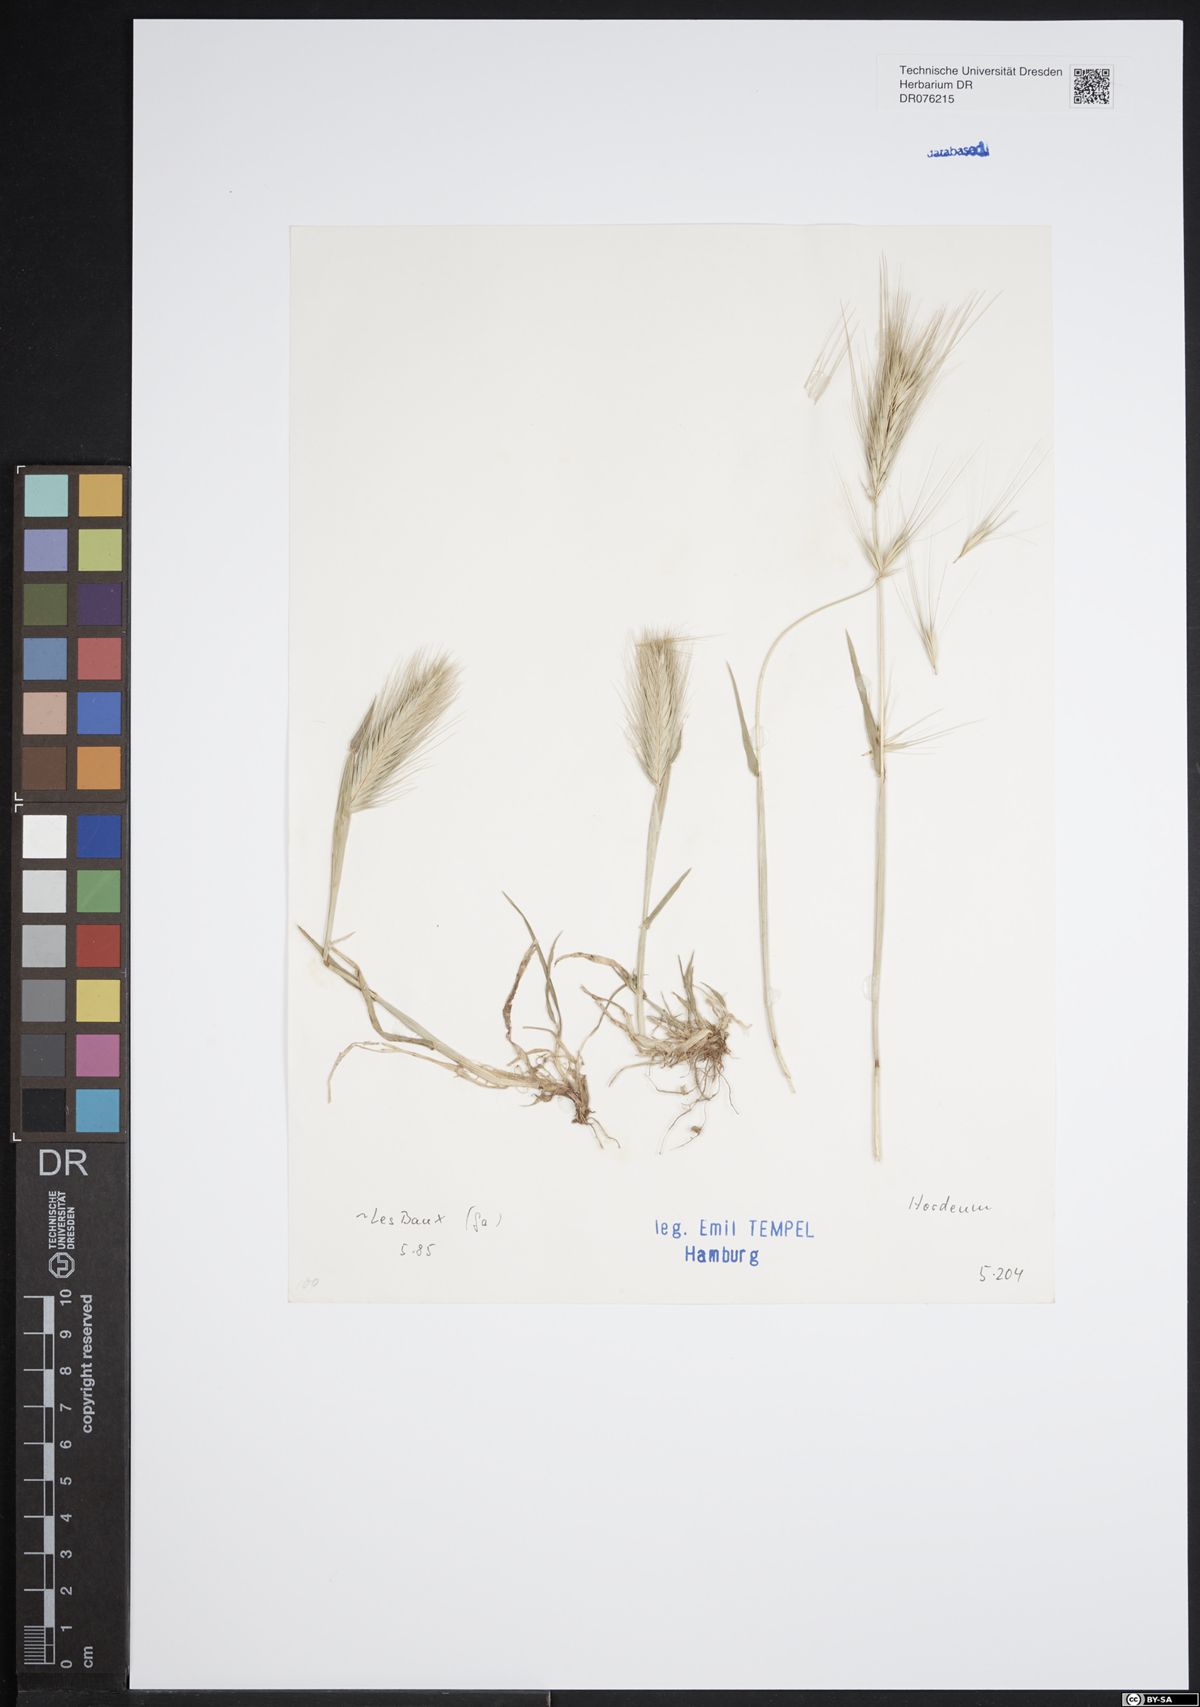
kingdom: Plantae
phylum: Tracheophyta
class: Liliopsida
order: Poales
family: Poaceae
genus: Hordeum
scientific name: Hordeum
